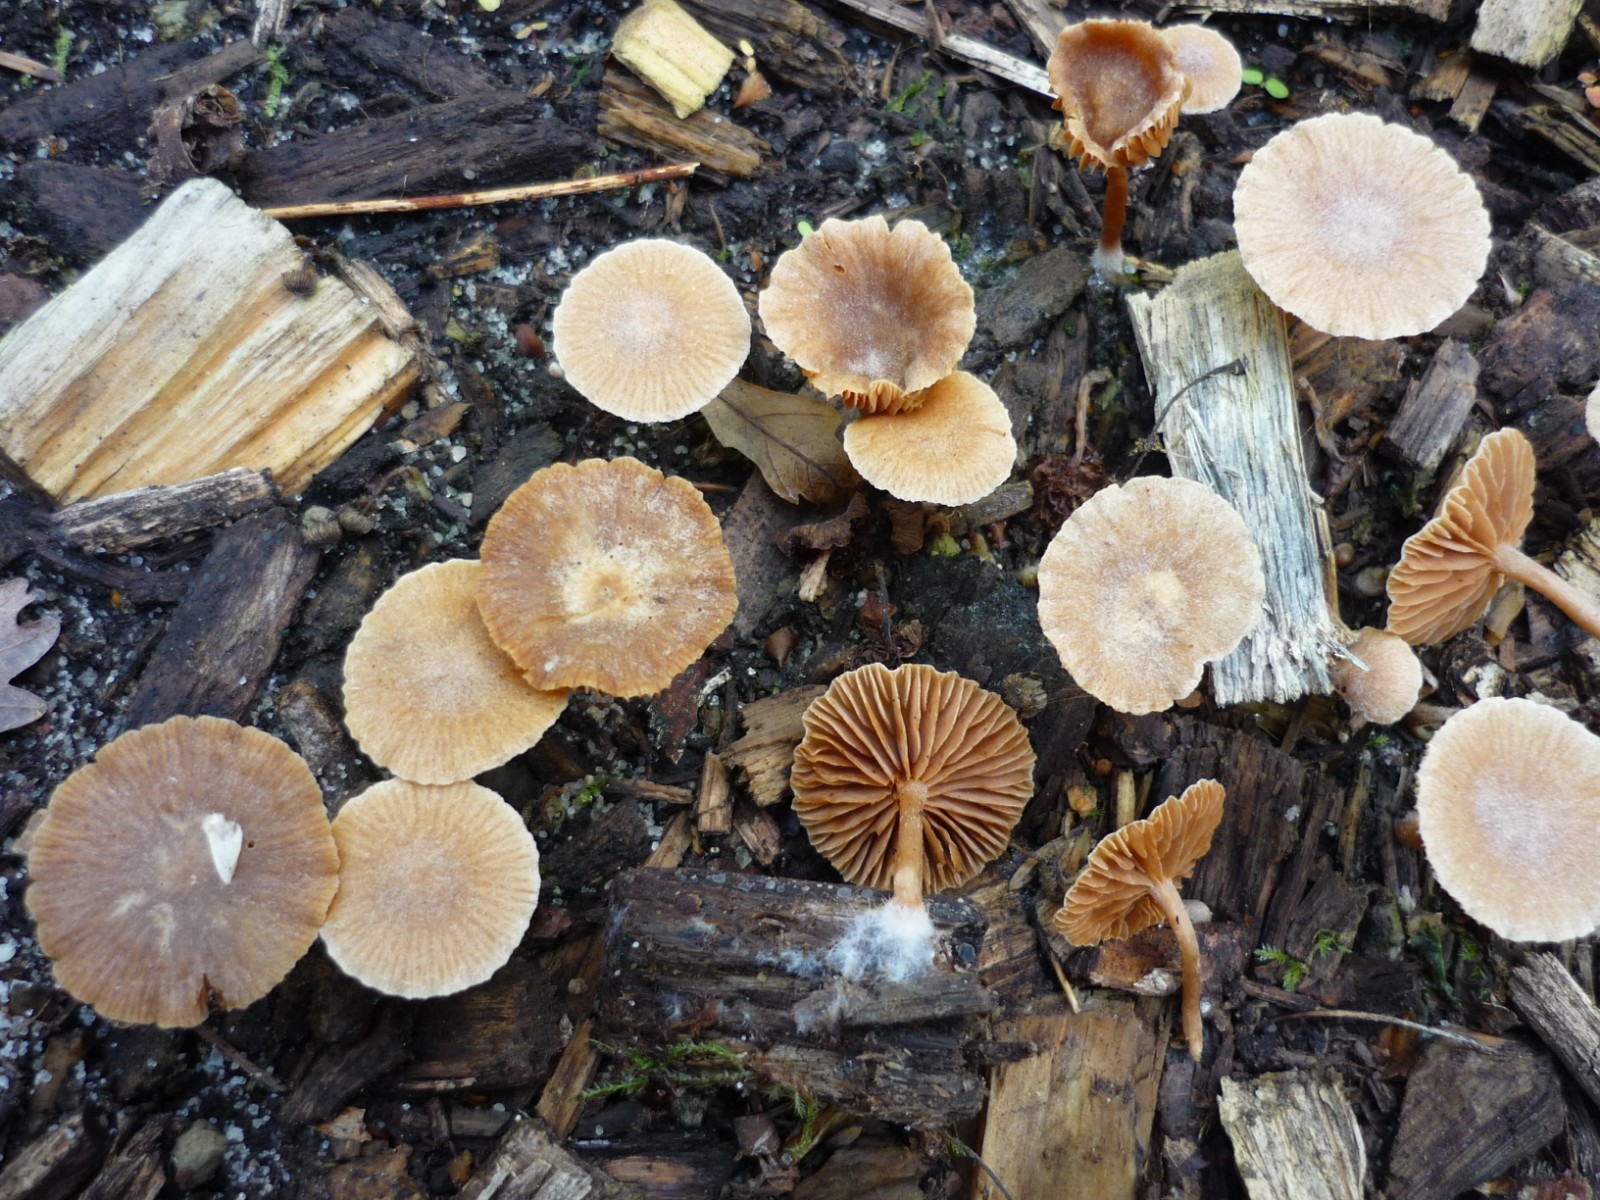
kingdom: Fungi
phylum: Basidiomycota
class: Agaricomycetes
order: Agaricales
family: Tubariaceae
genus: Tubaria
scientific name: Tubaria conspersa
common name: bleg fnughat
